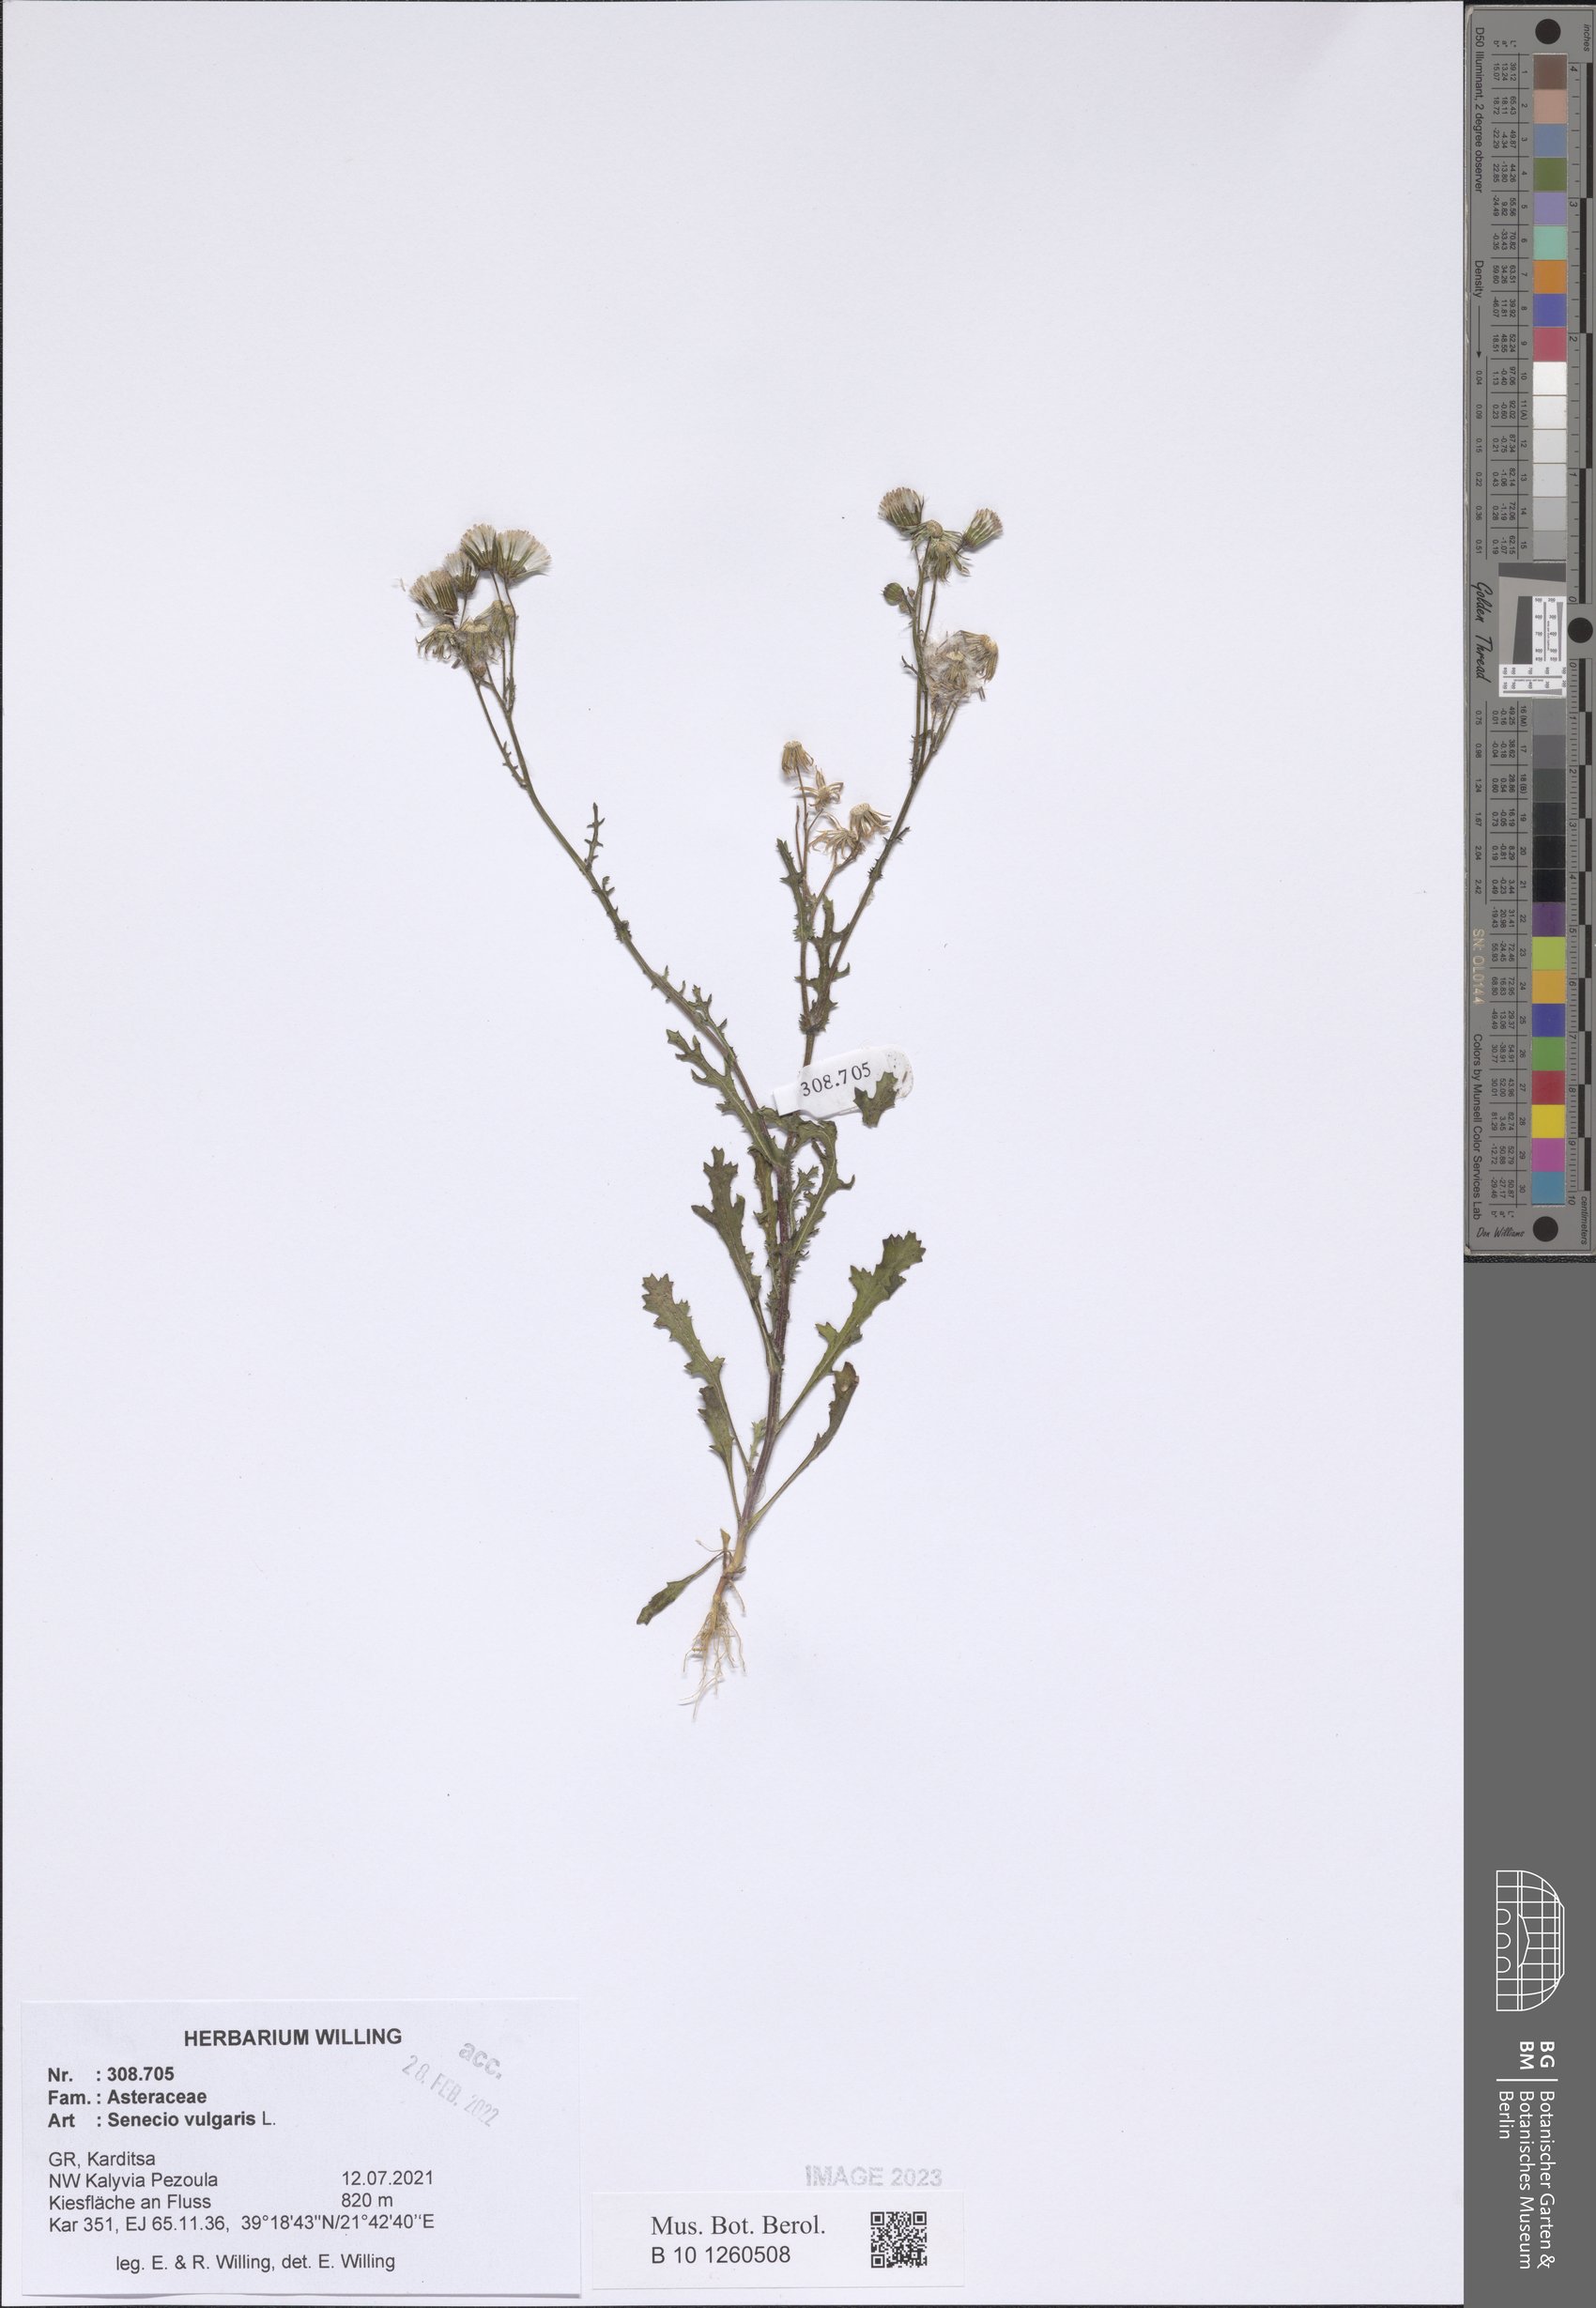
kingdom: Plantae
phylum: Tracheophyta
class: Magnoliopsida
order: Asterales
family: Asteraceae
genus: Senecio
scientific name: Senecio vulgaris
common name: Old-man-in-the-spring
